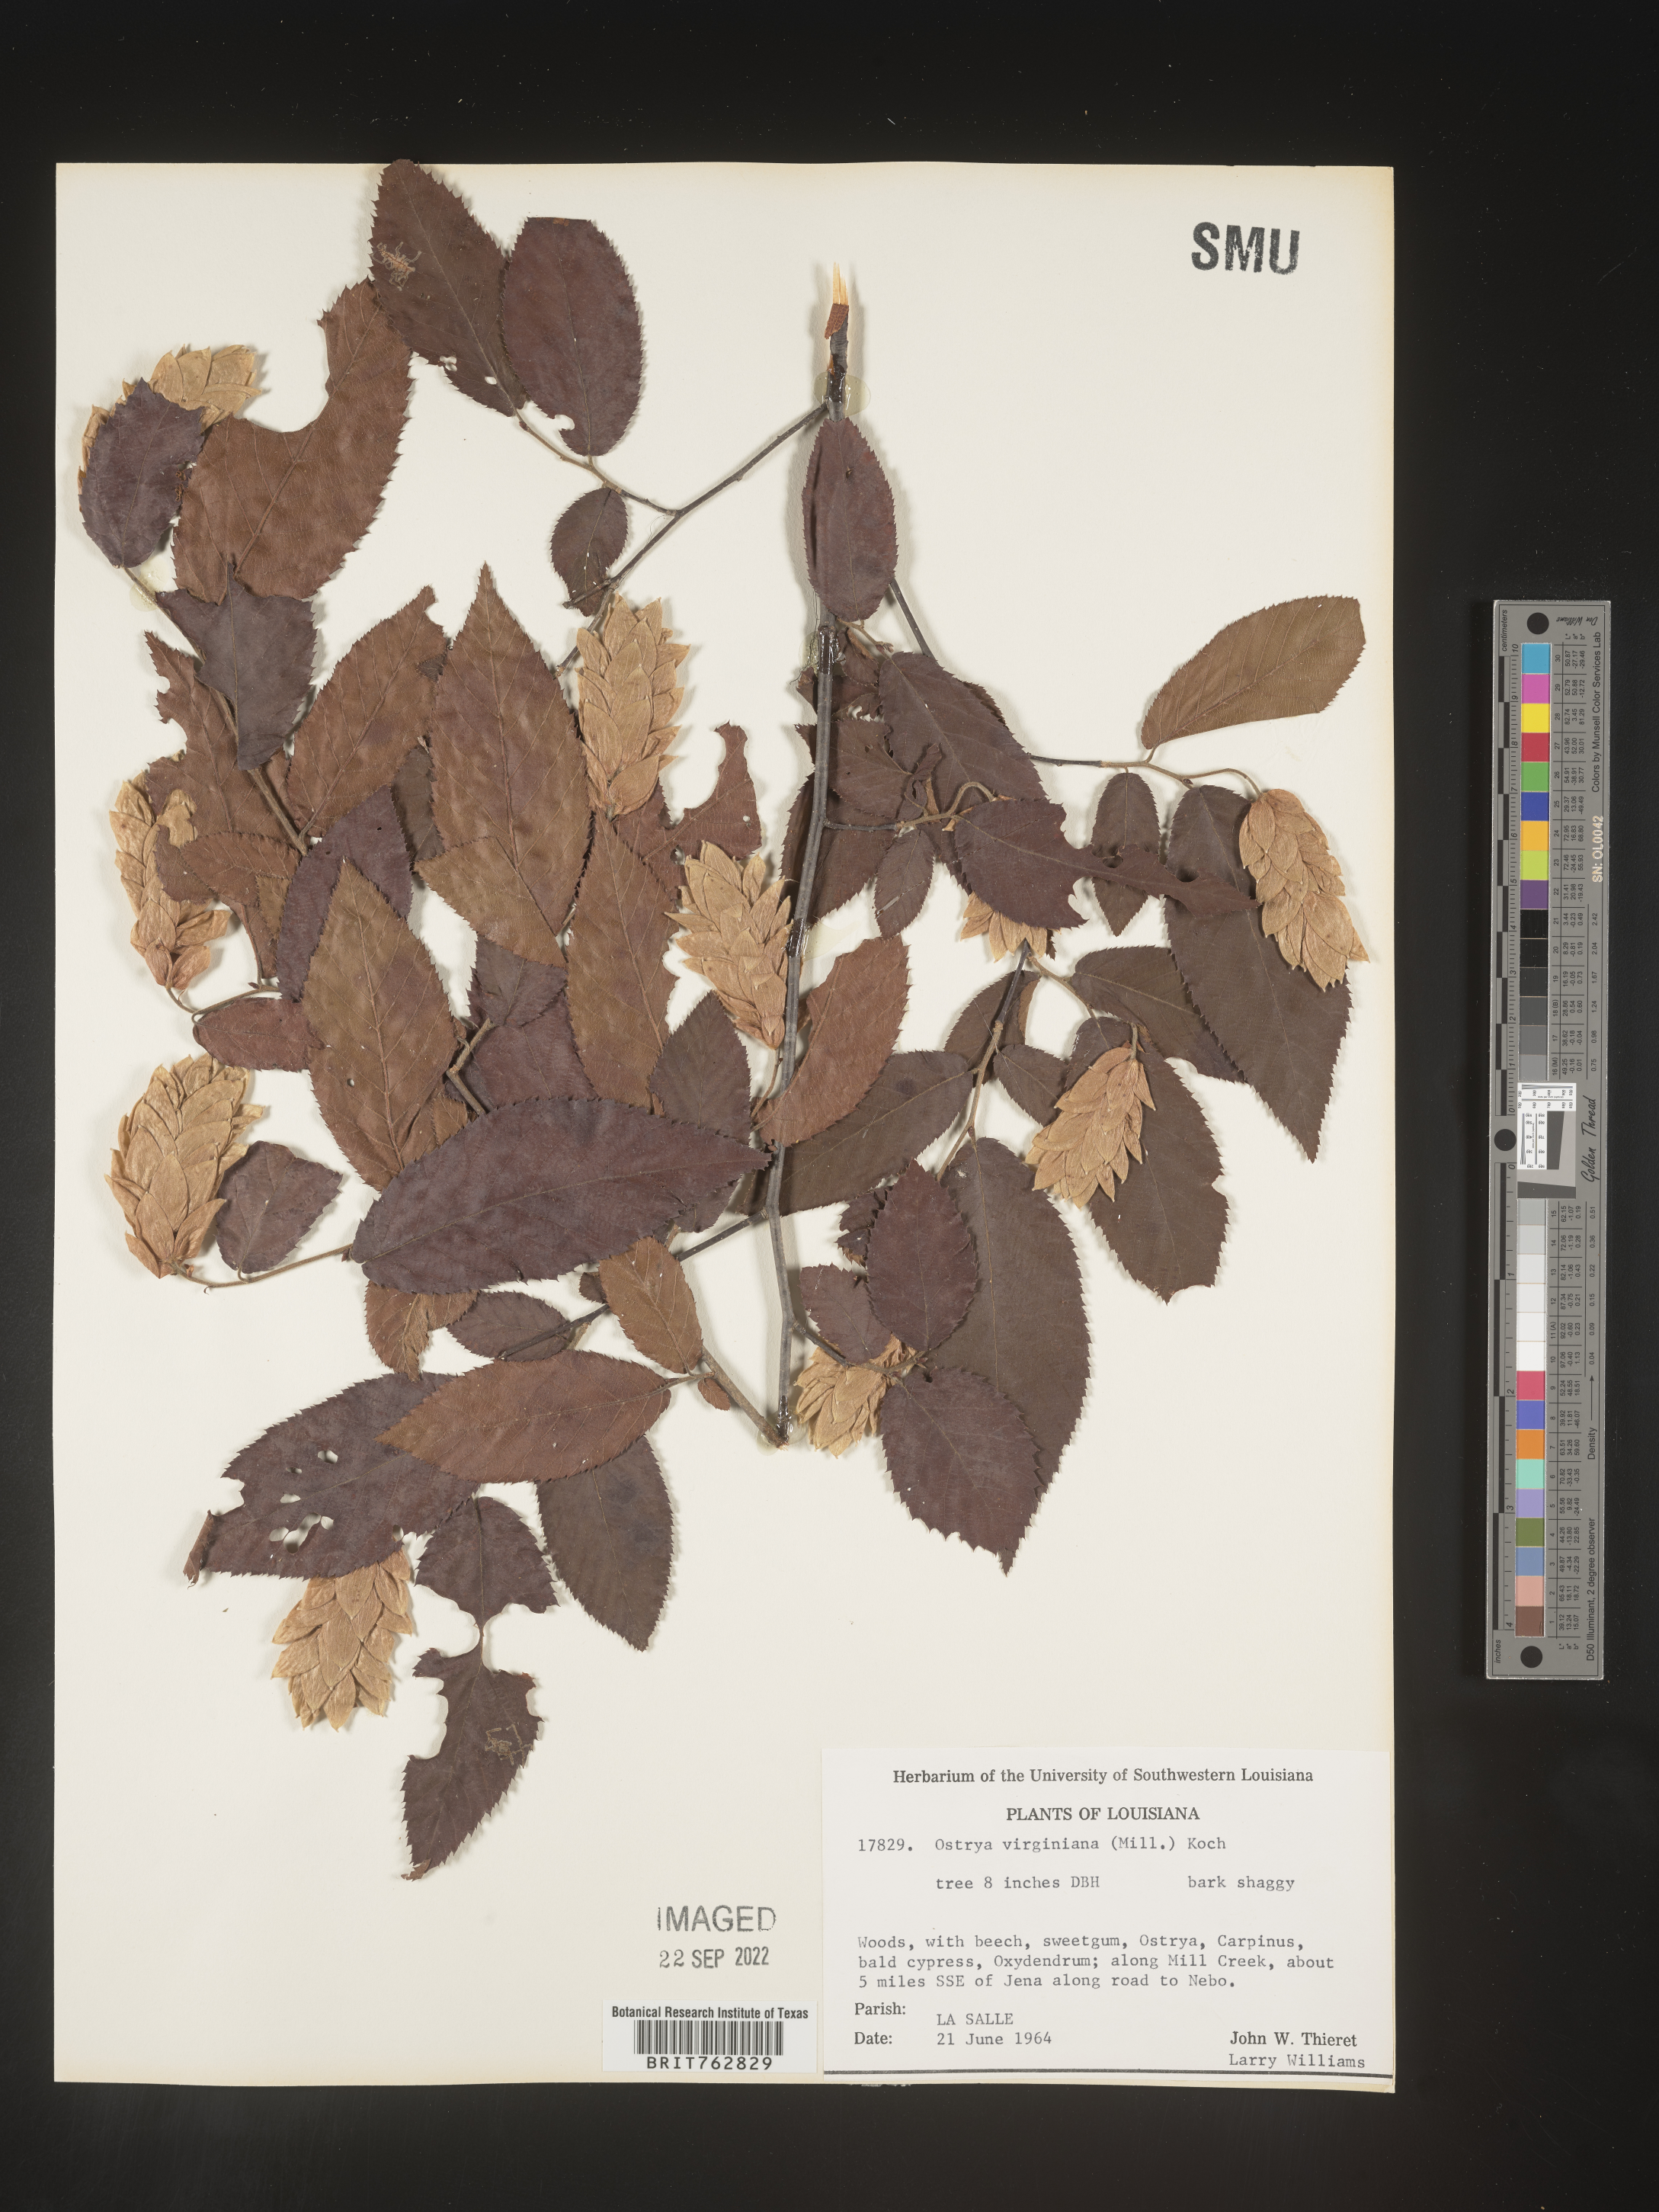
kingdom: Plantae
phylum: Tracheophyta
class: Magnoliopsida
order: Fagales
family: Betulaceae
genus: Ostrya
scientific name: Ostrya virginiana
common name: Ironwood
